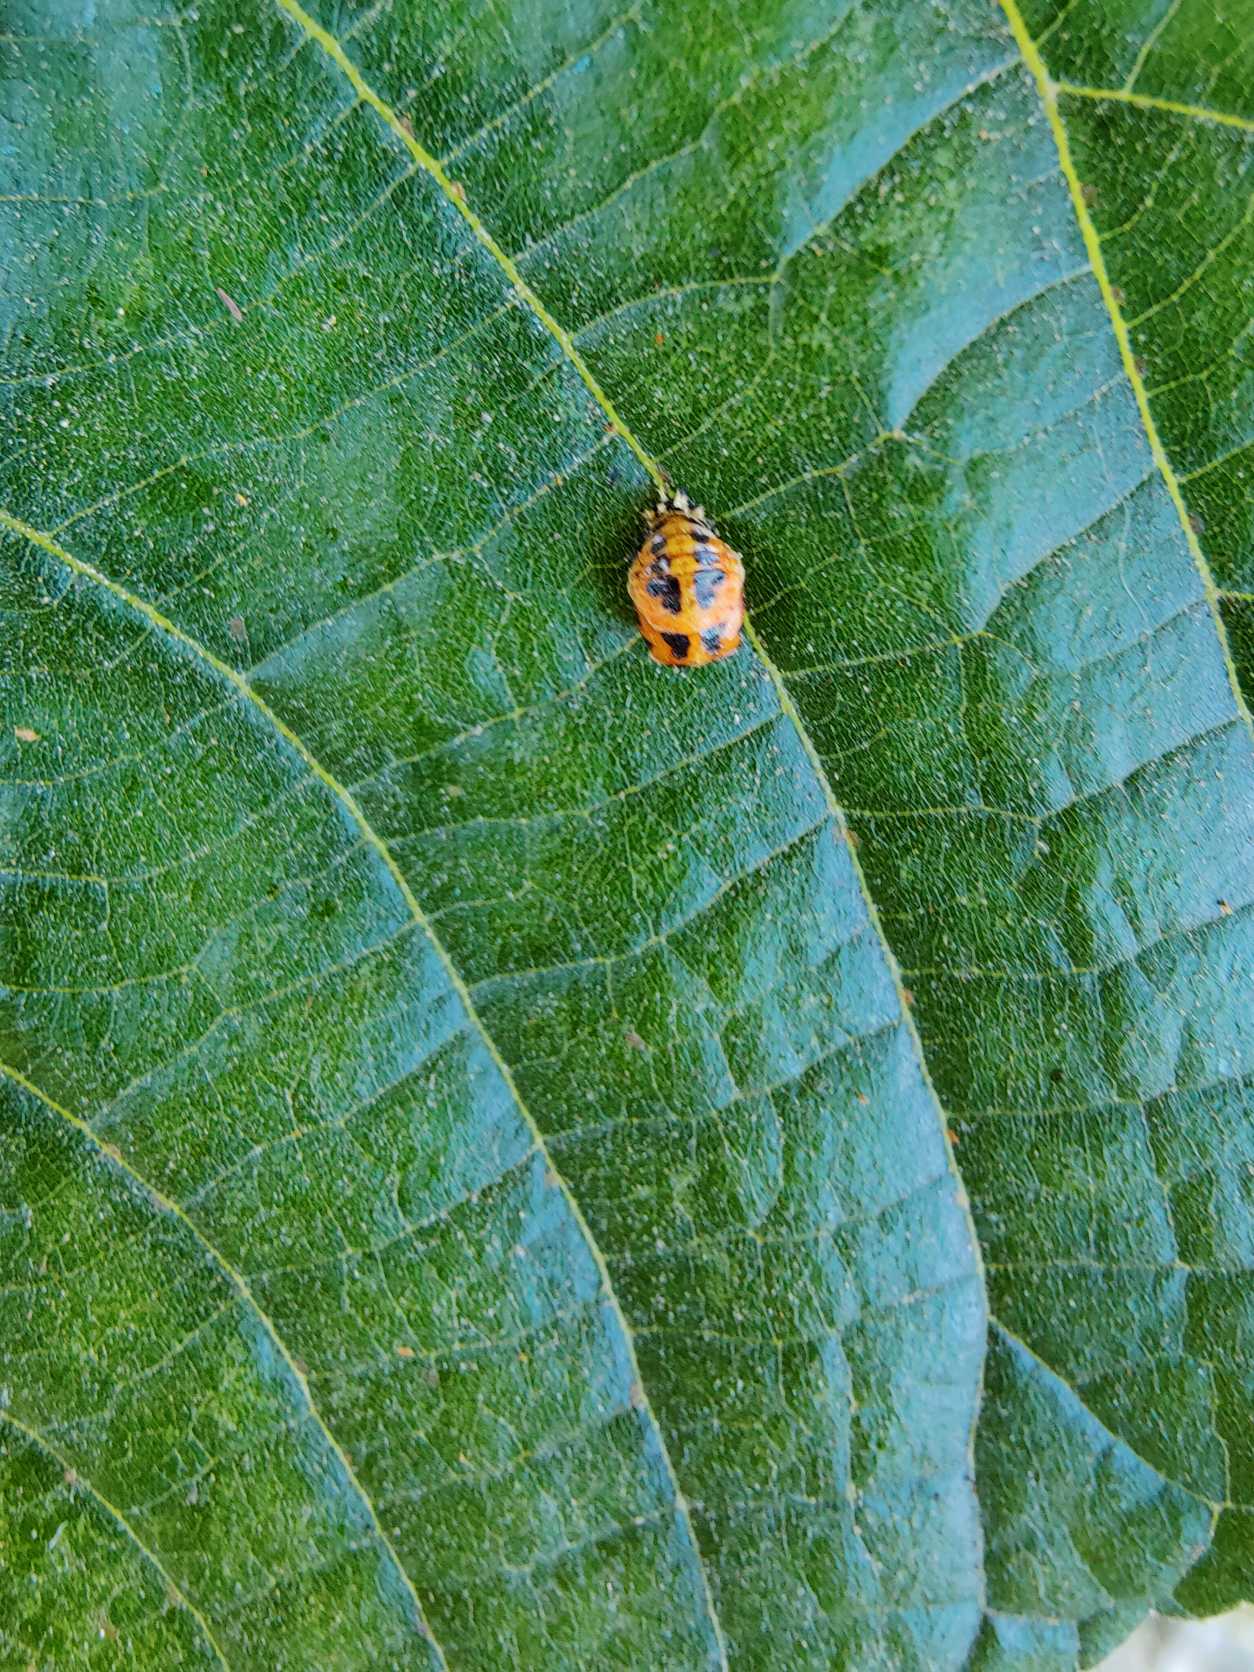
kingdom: Animalia
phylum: Arthropoda
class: Insecta
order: Coleoptera
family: Coccinellidae
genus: Harmonia
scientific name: Harmonia axyridis
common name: Harlekinmariehøne
